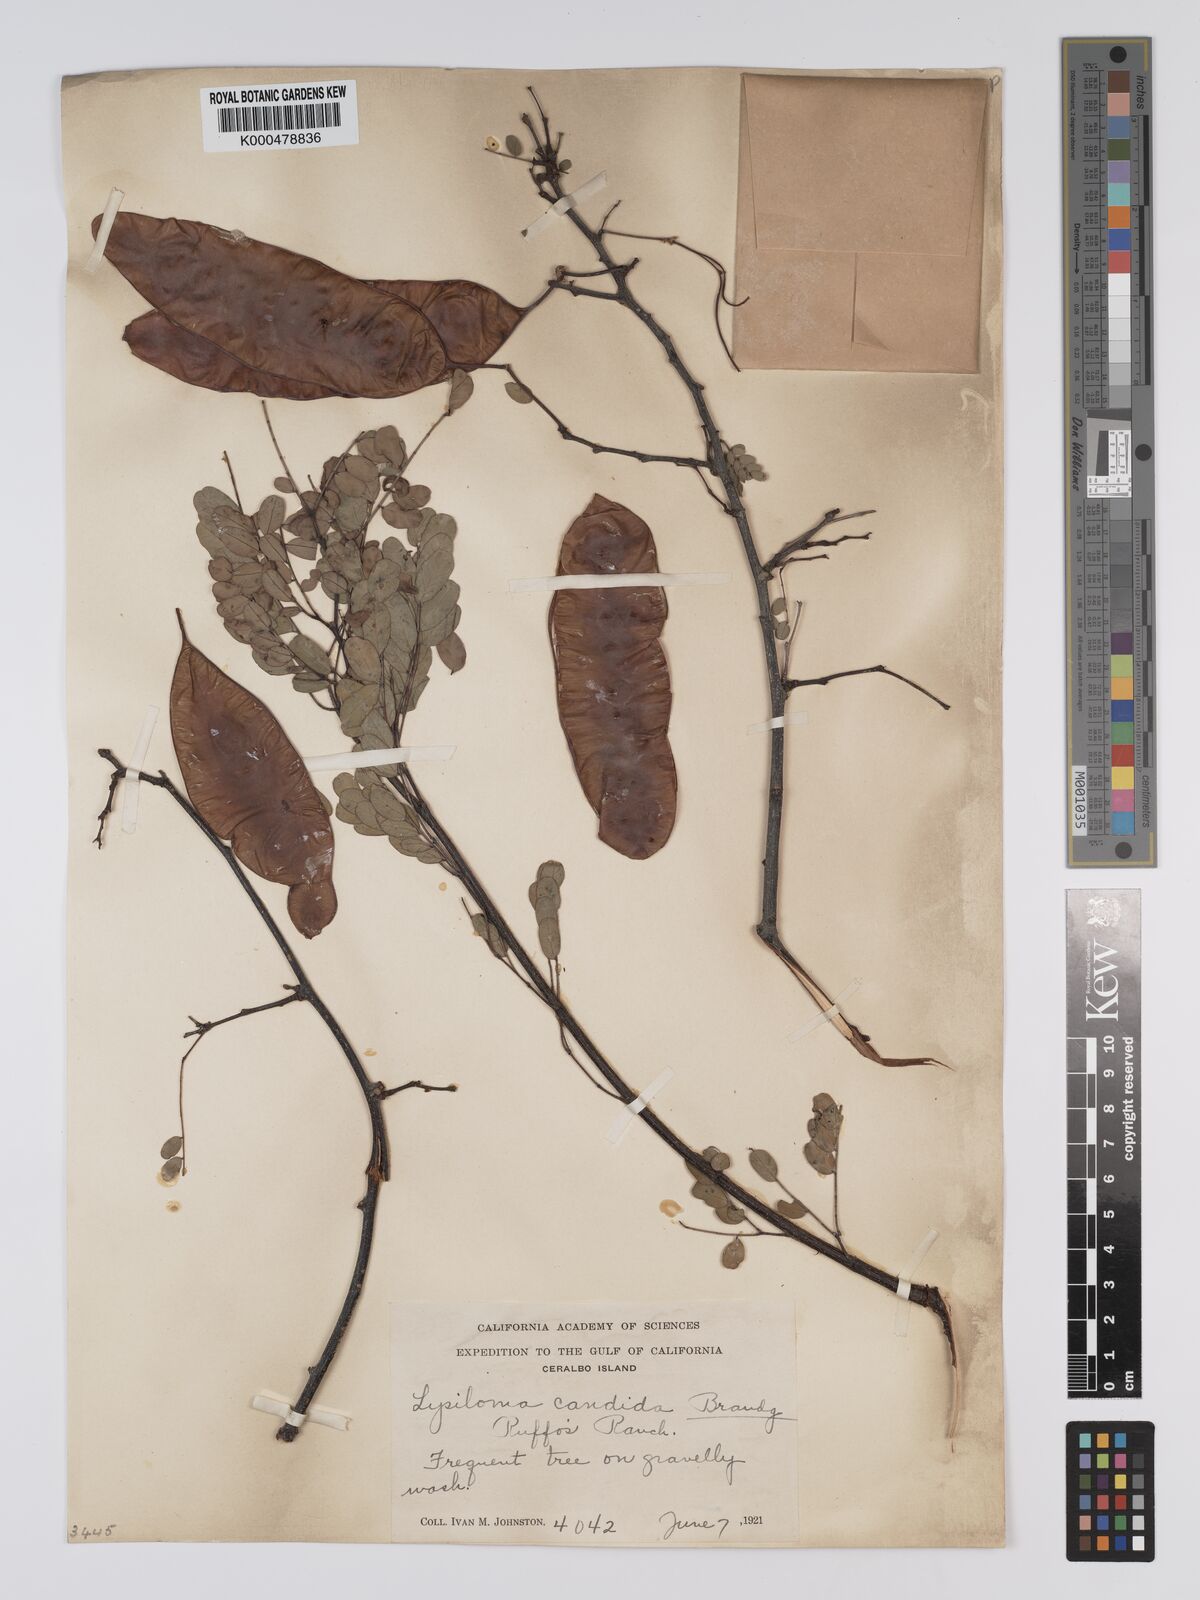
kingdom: Plantae
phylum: Tracheophyta
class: Magnoliopsida
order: Fabales
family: Fabaceae
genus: Lysiloma
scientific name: Lysiloma candidum
